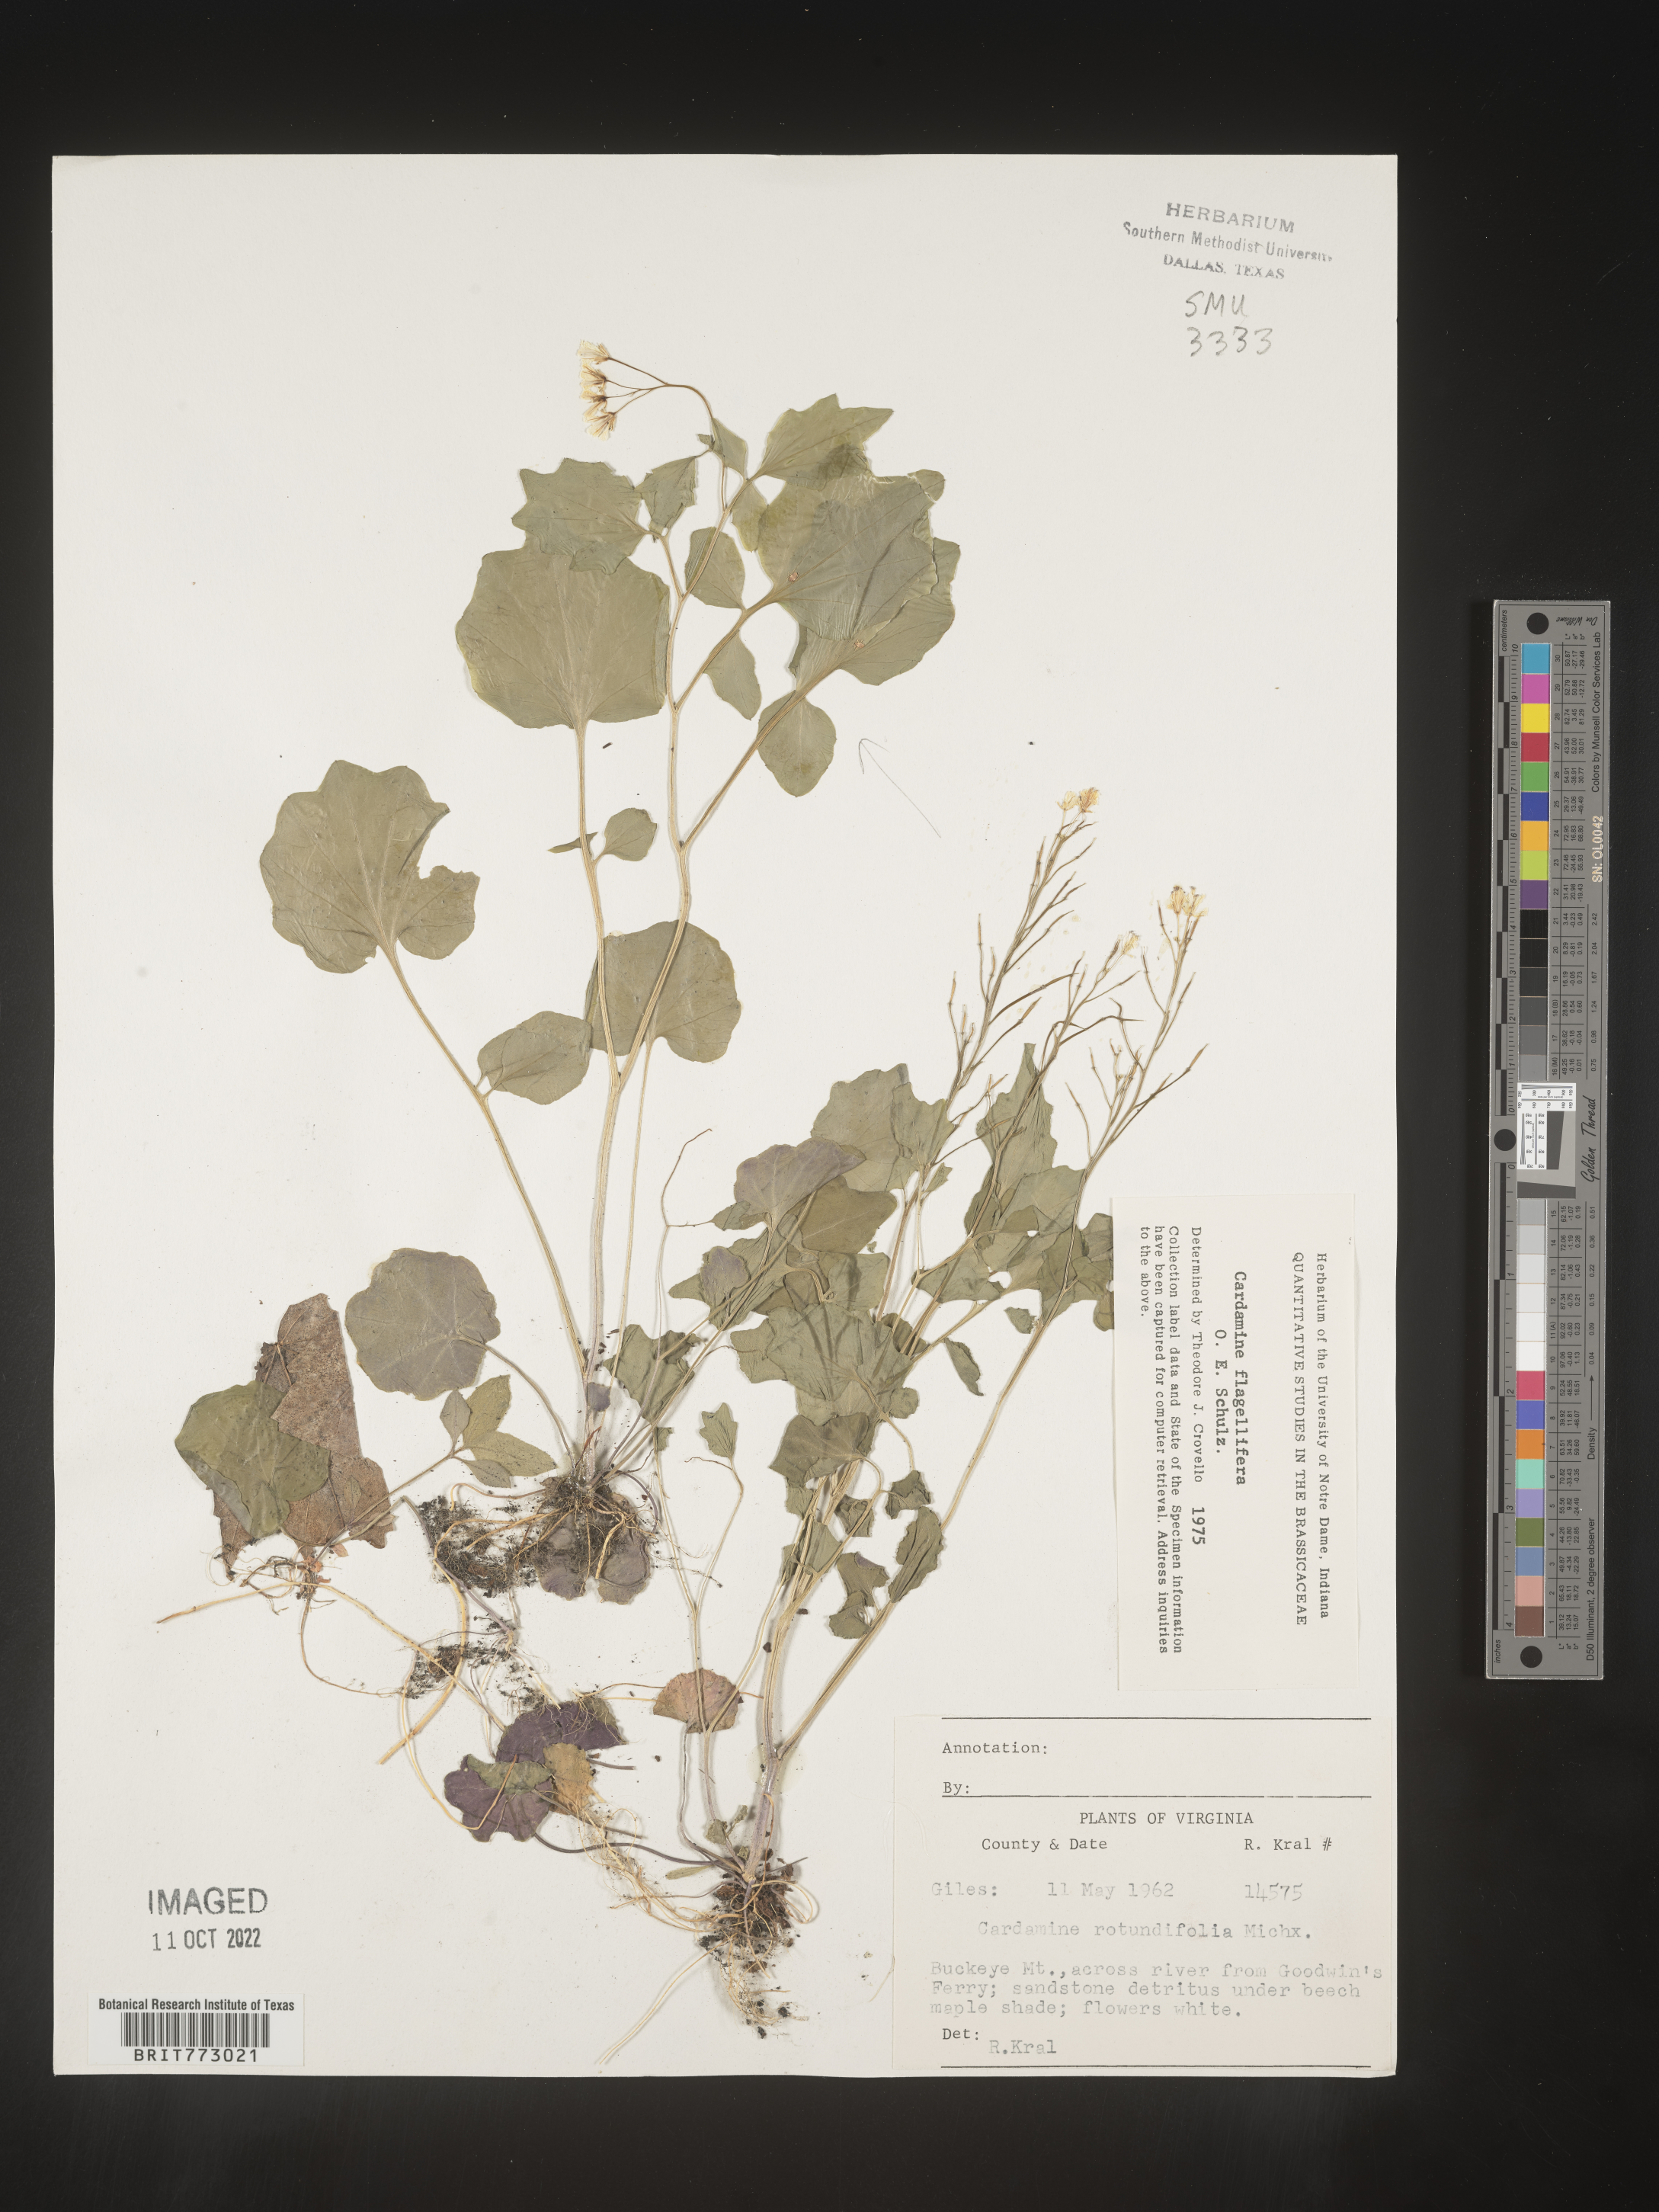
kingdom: Plantae
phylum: Tracheophyta
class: Magnoliopsida
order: Brassicales
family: Brassicaceae
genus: Cardamine
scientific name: Cardamine
